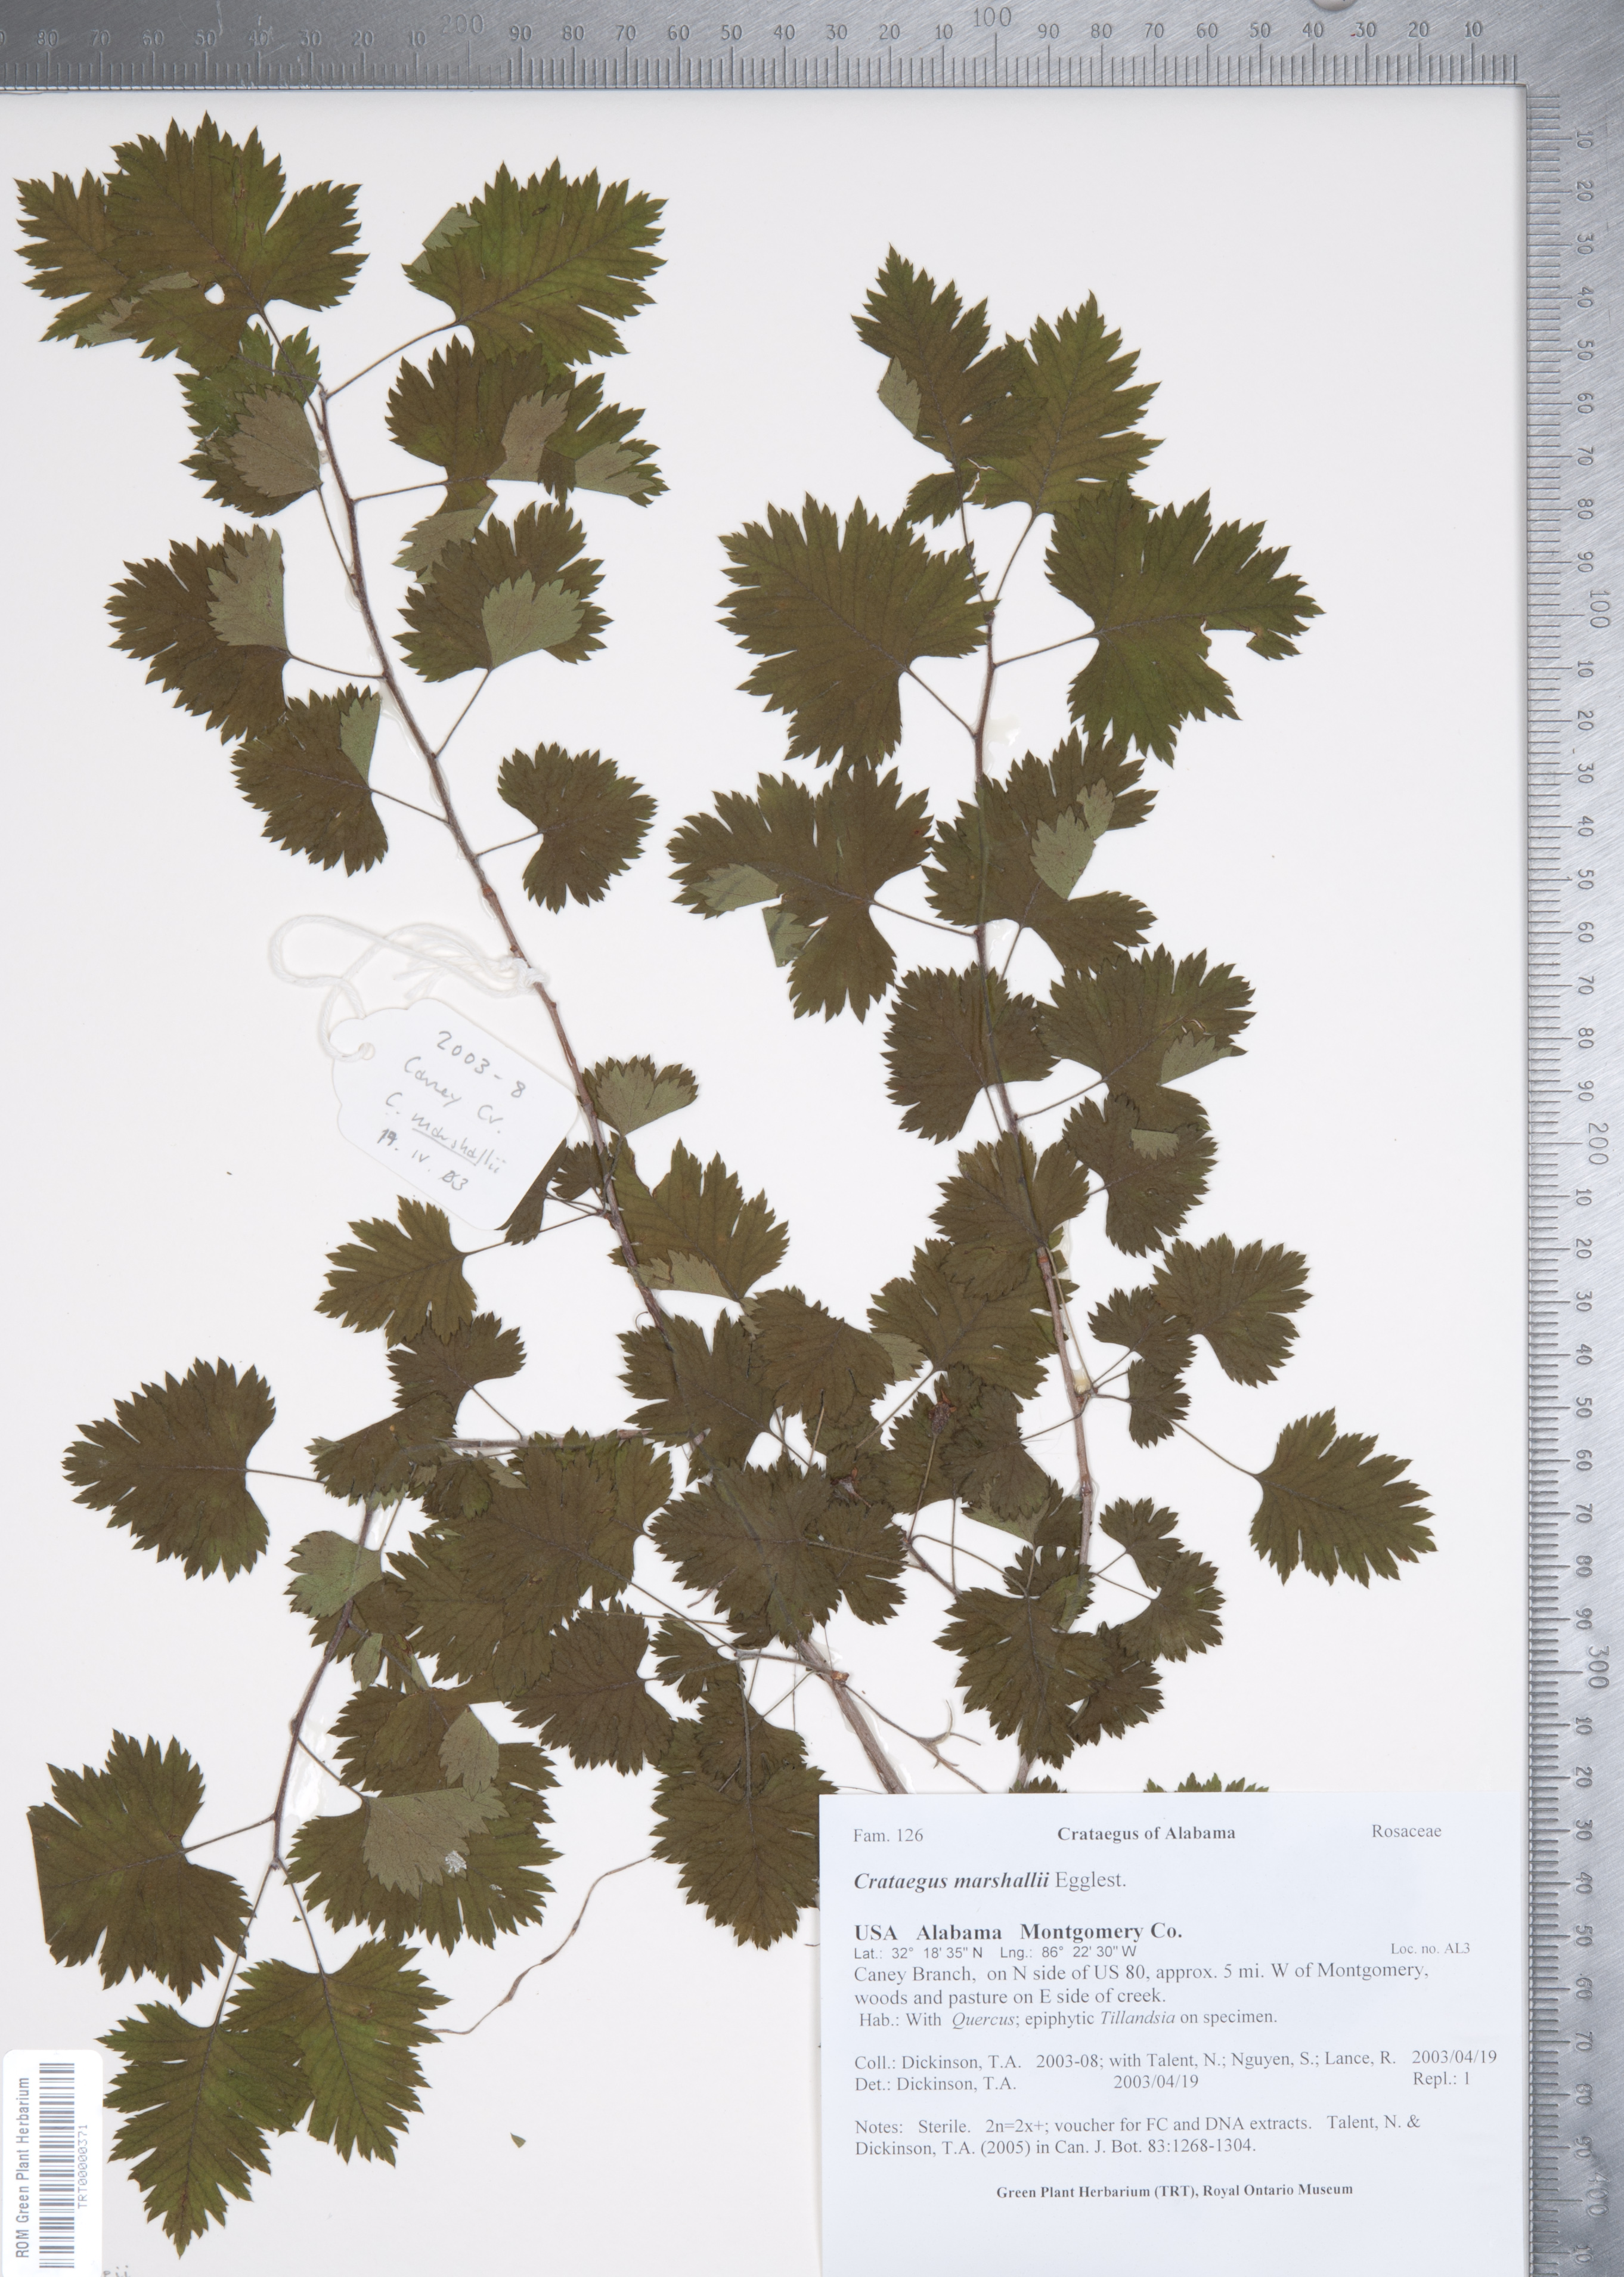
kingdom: Plantae
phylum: Tracheophyta
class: Magnoliopsida
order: Rosales
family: Rosaceae
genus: Crataegus
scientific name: Crataegus marshallii
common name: Parsley-hawthorn
